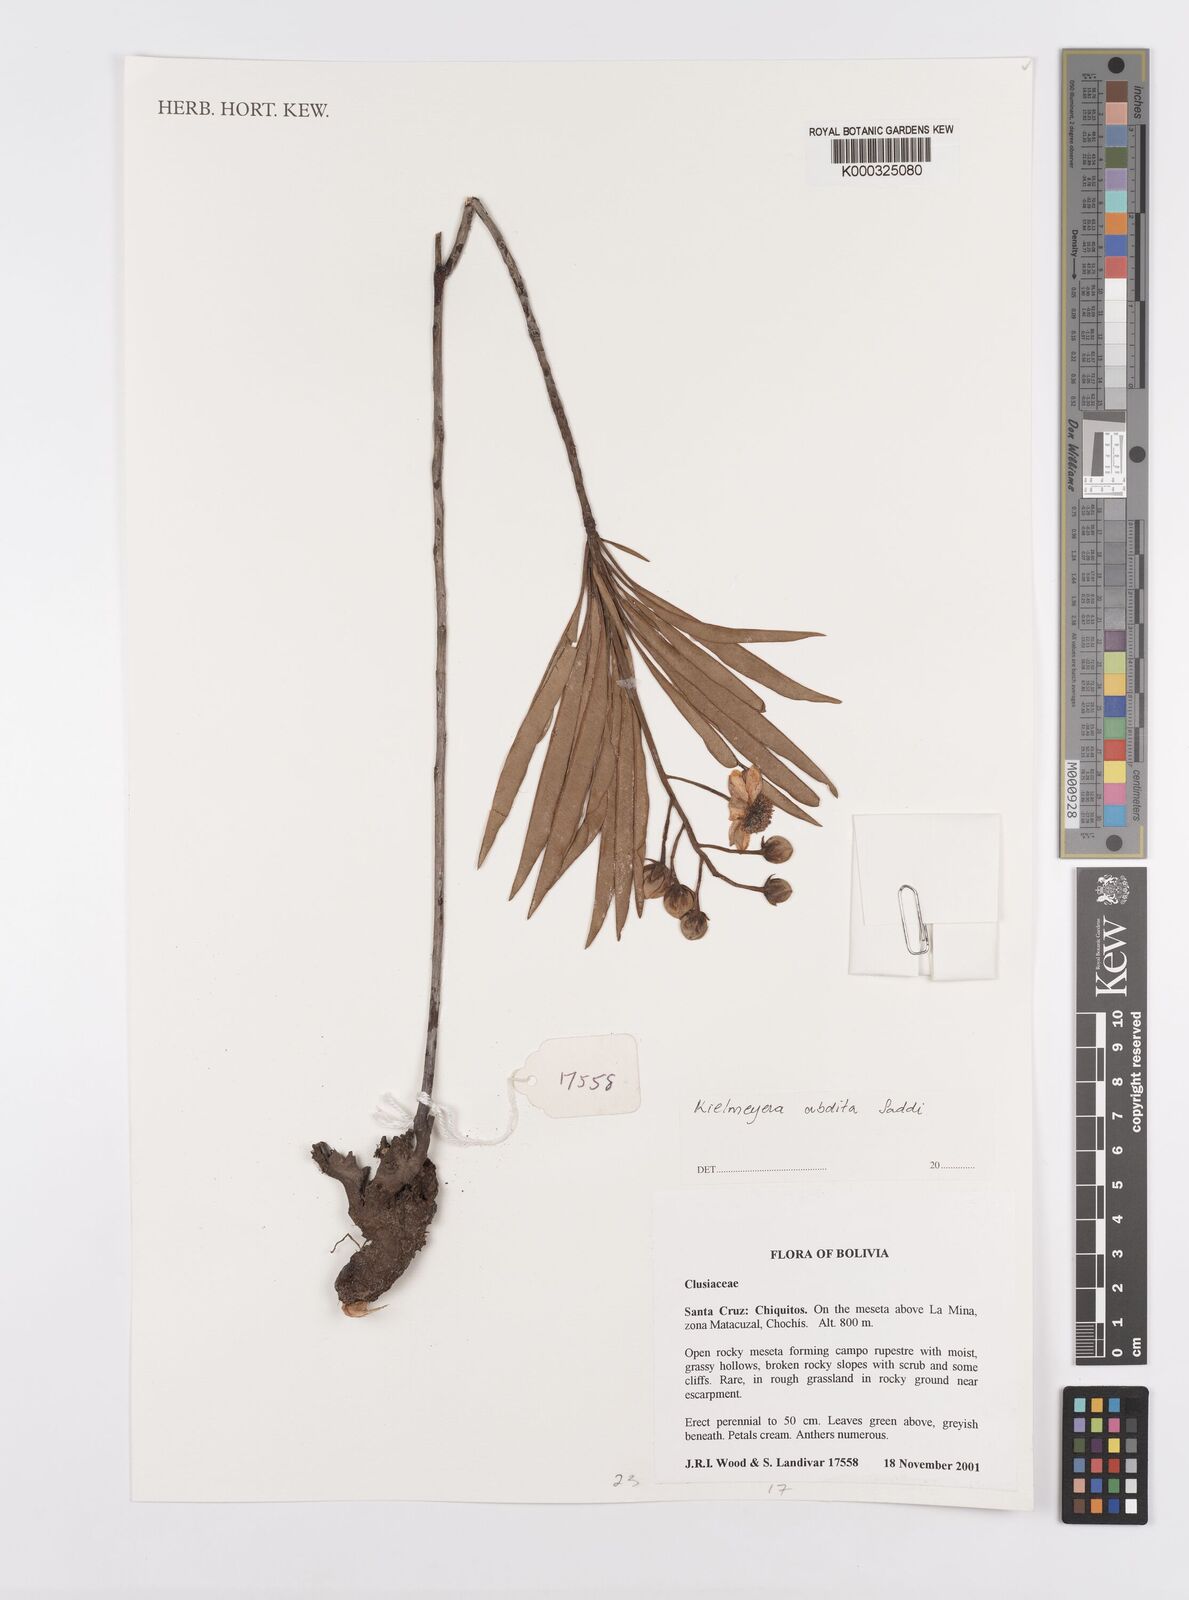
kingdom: Plantae
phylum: Tracheophyta
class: Magnoliopsida
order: Malpighiales
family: Calophyllaceae
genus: Kielmeyera
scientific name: Kielmeyera abdita
